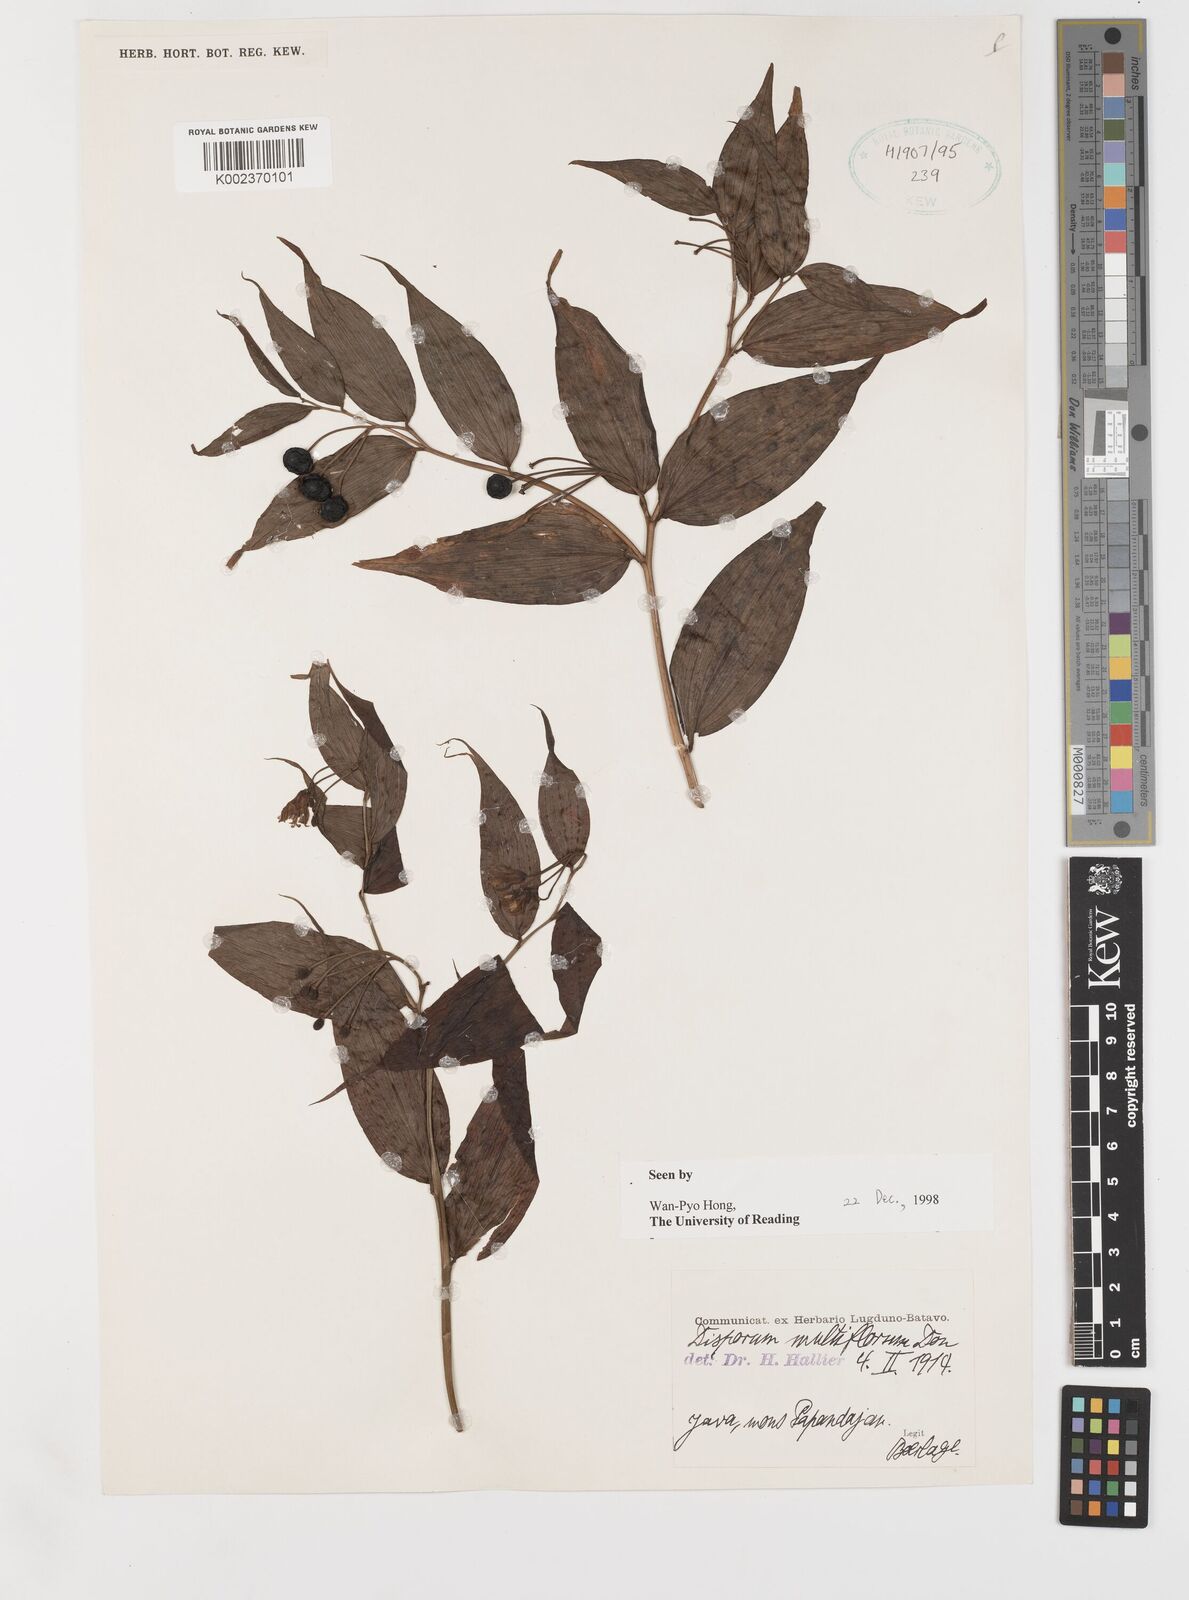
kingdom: Plantae
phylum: Tracheophyta
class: Liliopsida
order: Liliales
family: Colchicaceae
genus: Disporum
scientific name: Disporum cantoniense
